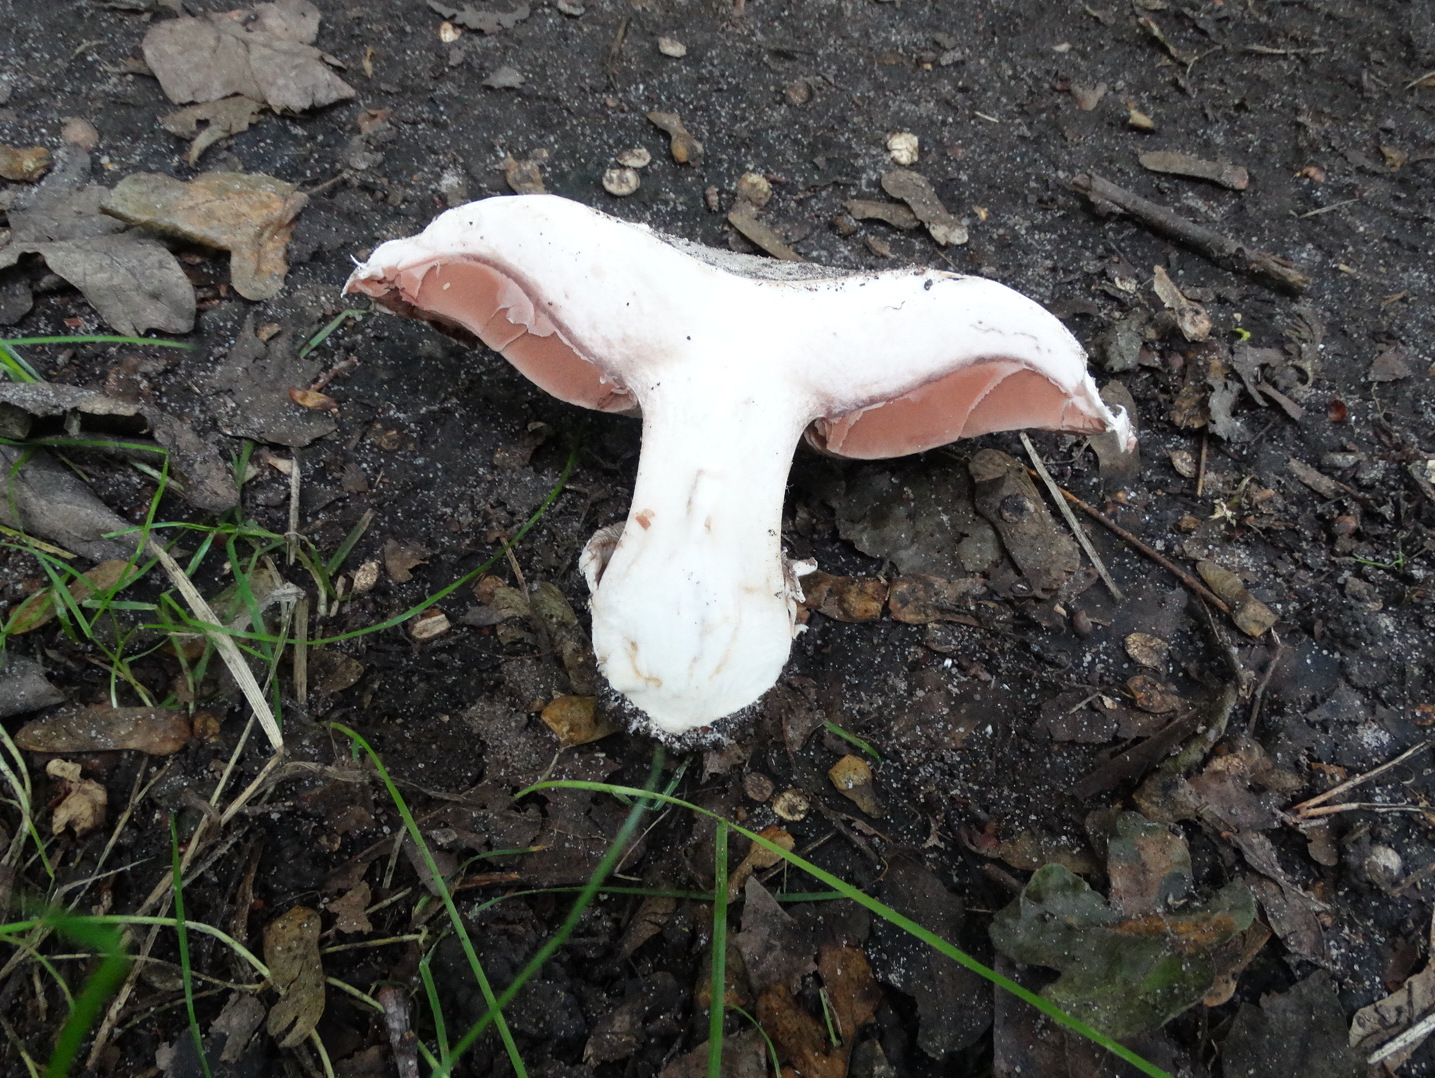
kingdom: Fungi
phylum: Basidiomycota
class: Agaricomycetes
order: Agaricales
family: Agaricaceae
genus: Agaricus
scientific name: Agaricus bitorquis
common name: vej-champignon
